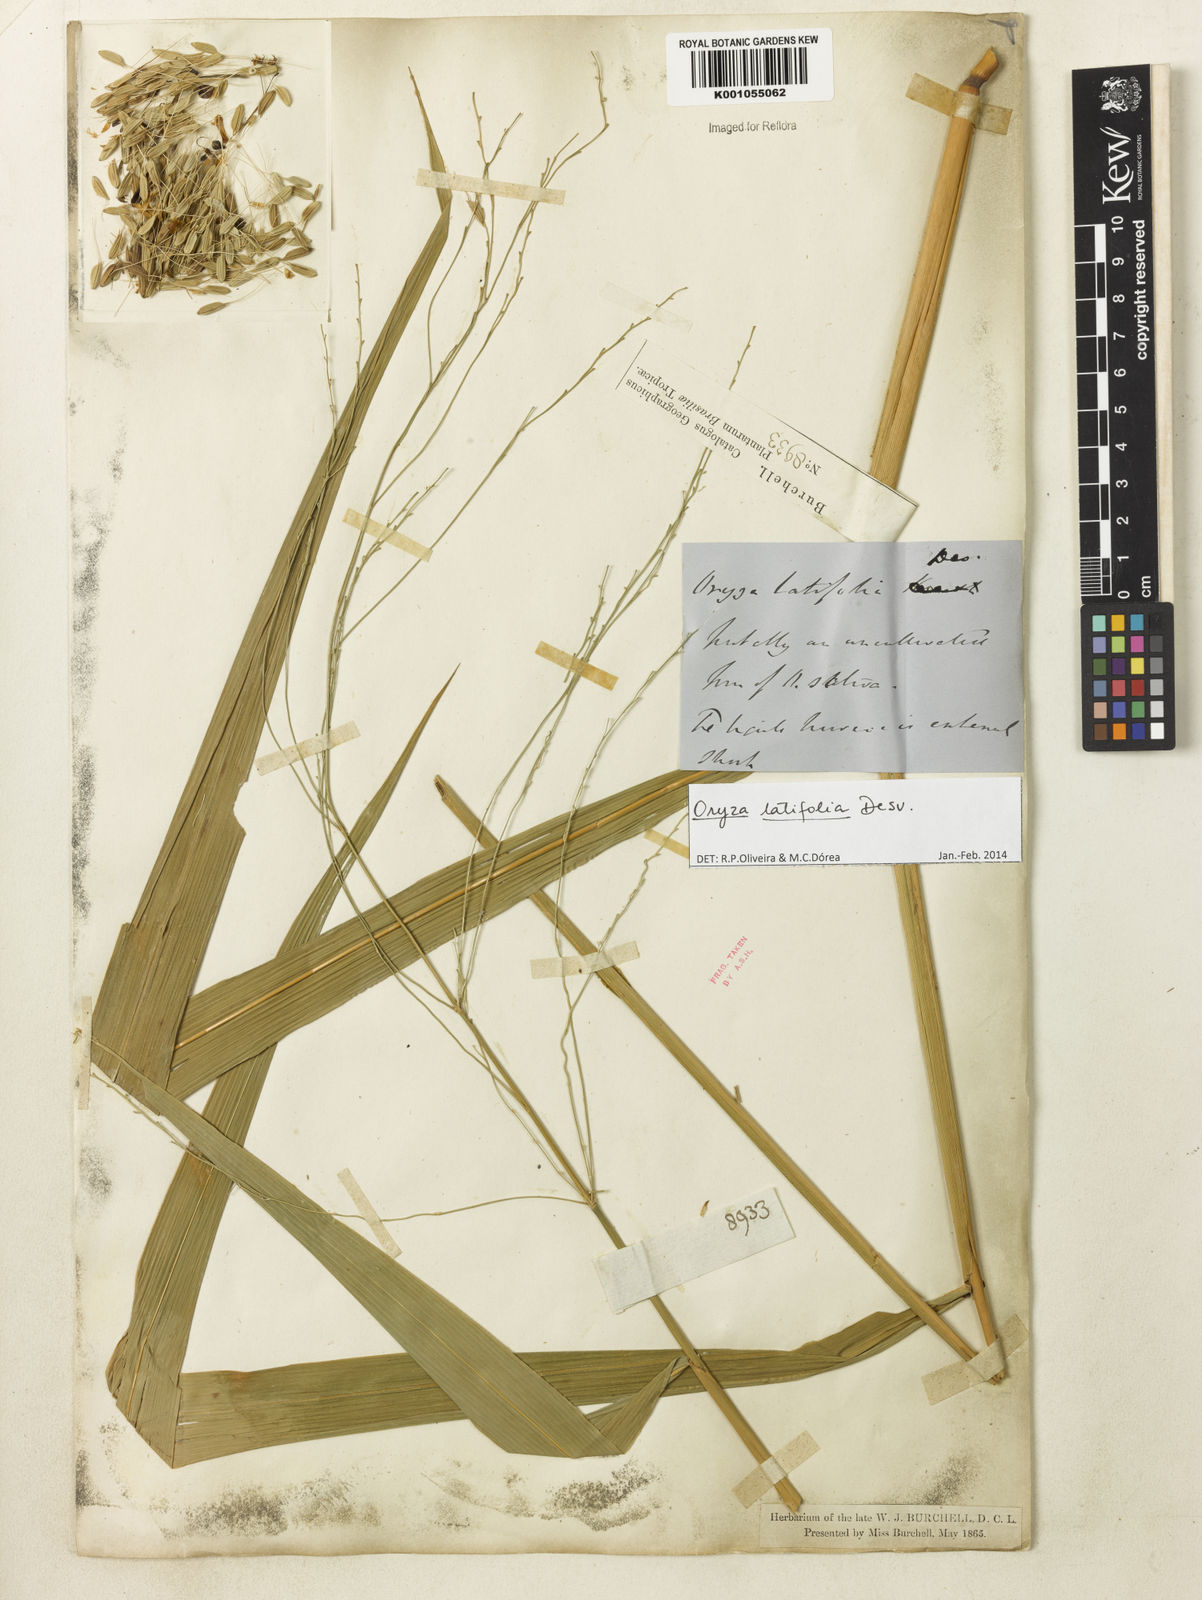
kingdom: Plantae
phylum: Tracheophyta
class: Liliopsida
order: Poales
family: Poaceae
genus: Oryza
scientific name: Oryza latifolia
